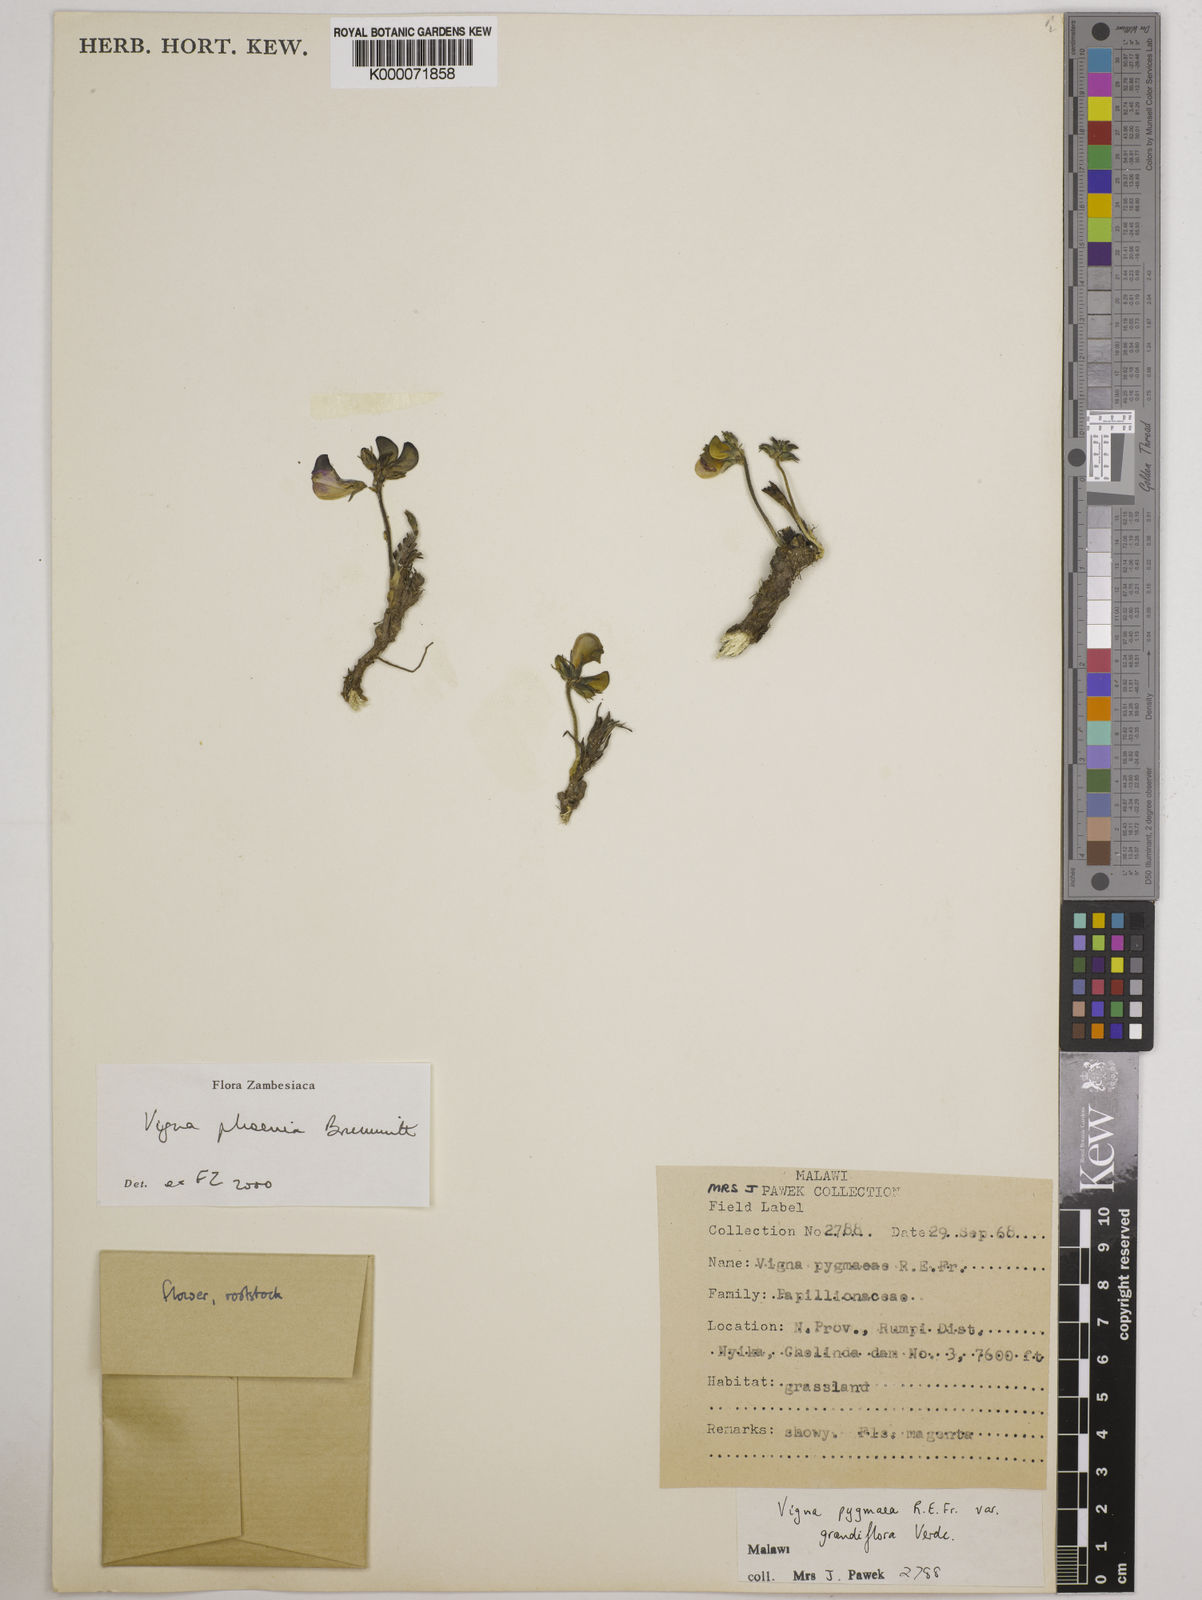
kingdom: Plantae
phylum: Tracheophyta
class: Magnoliopsida
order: Fabales
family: Fabaceae
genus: Vigna
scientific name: Vigna phoenix
